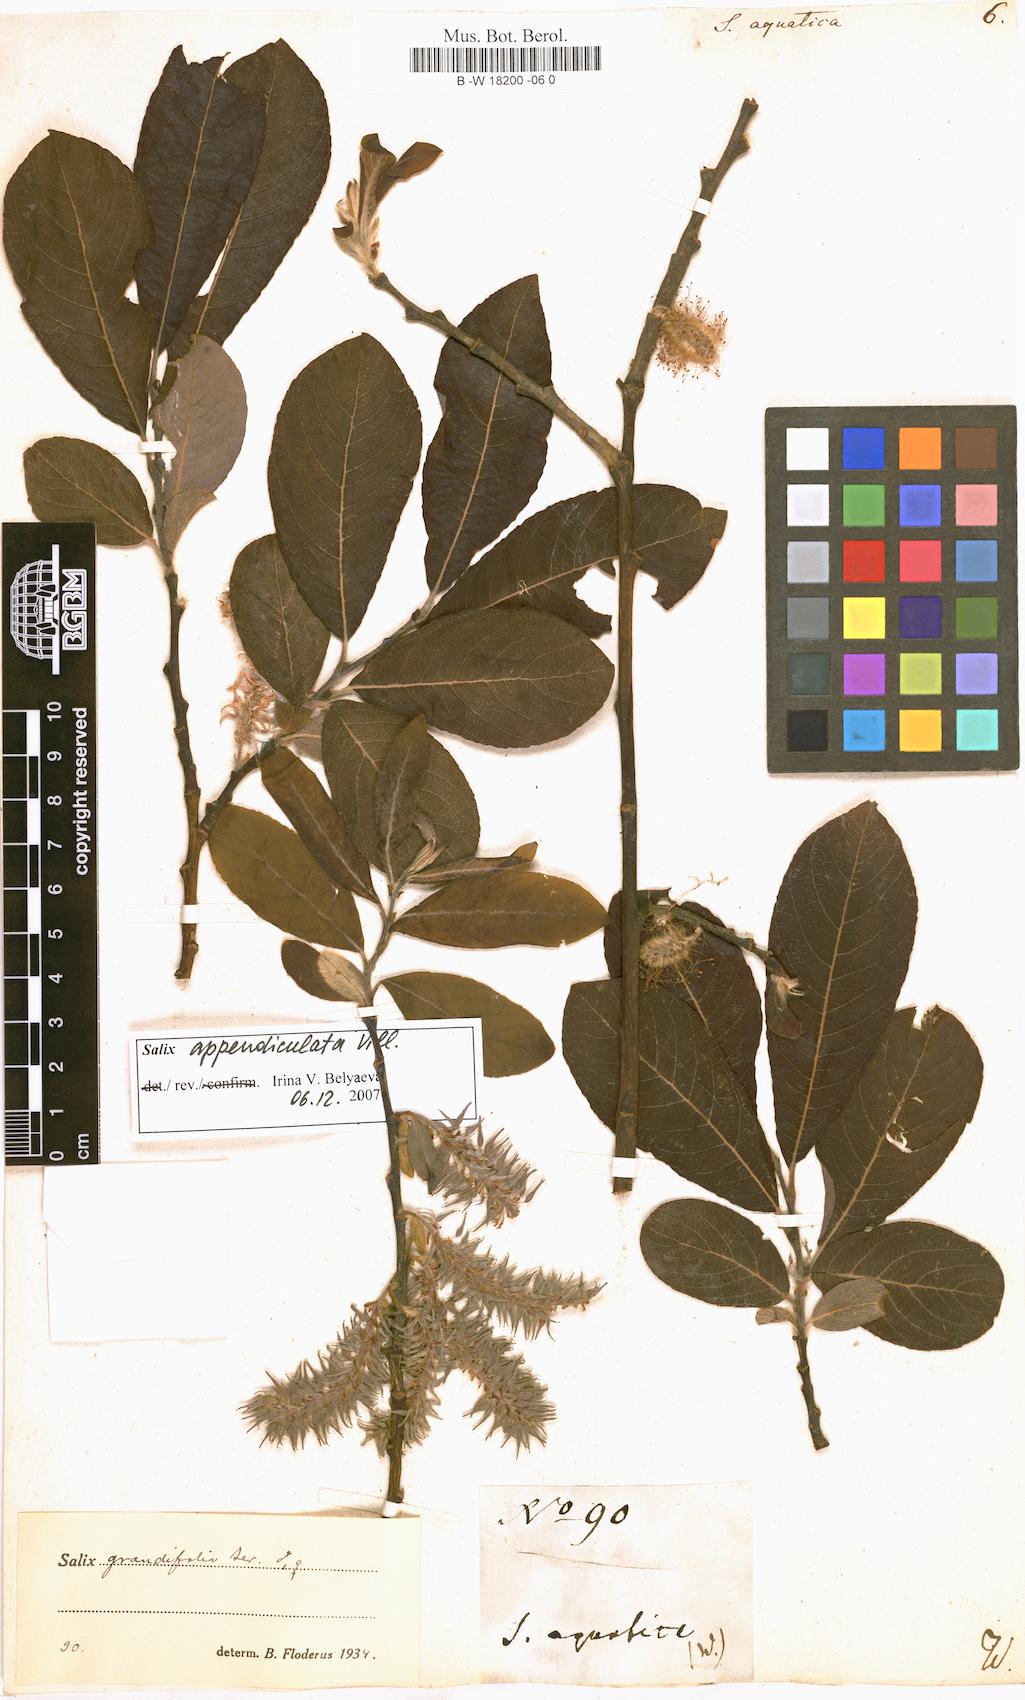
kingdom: Plantae
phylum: Tracheophyta
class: Magnoliopsida
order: Malpighiales
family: Salicaceae
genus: Salix
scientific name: Salix
